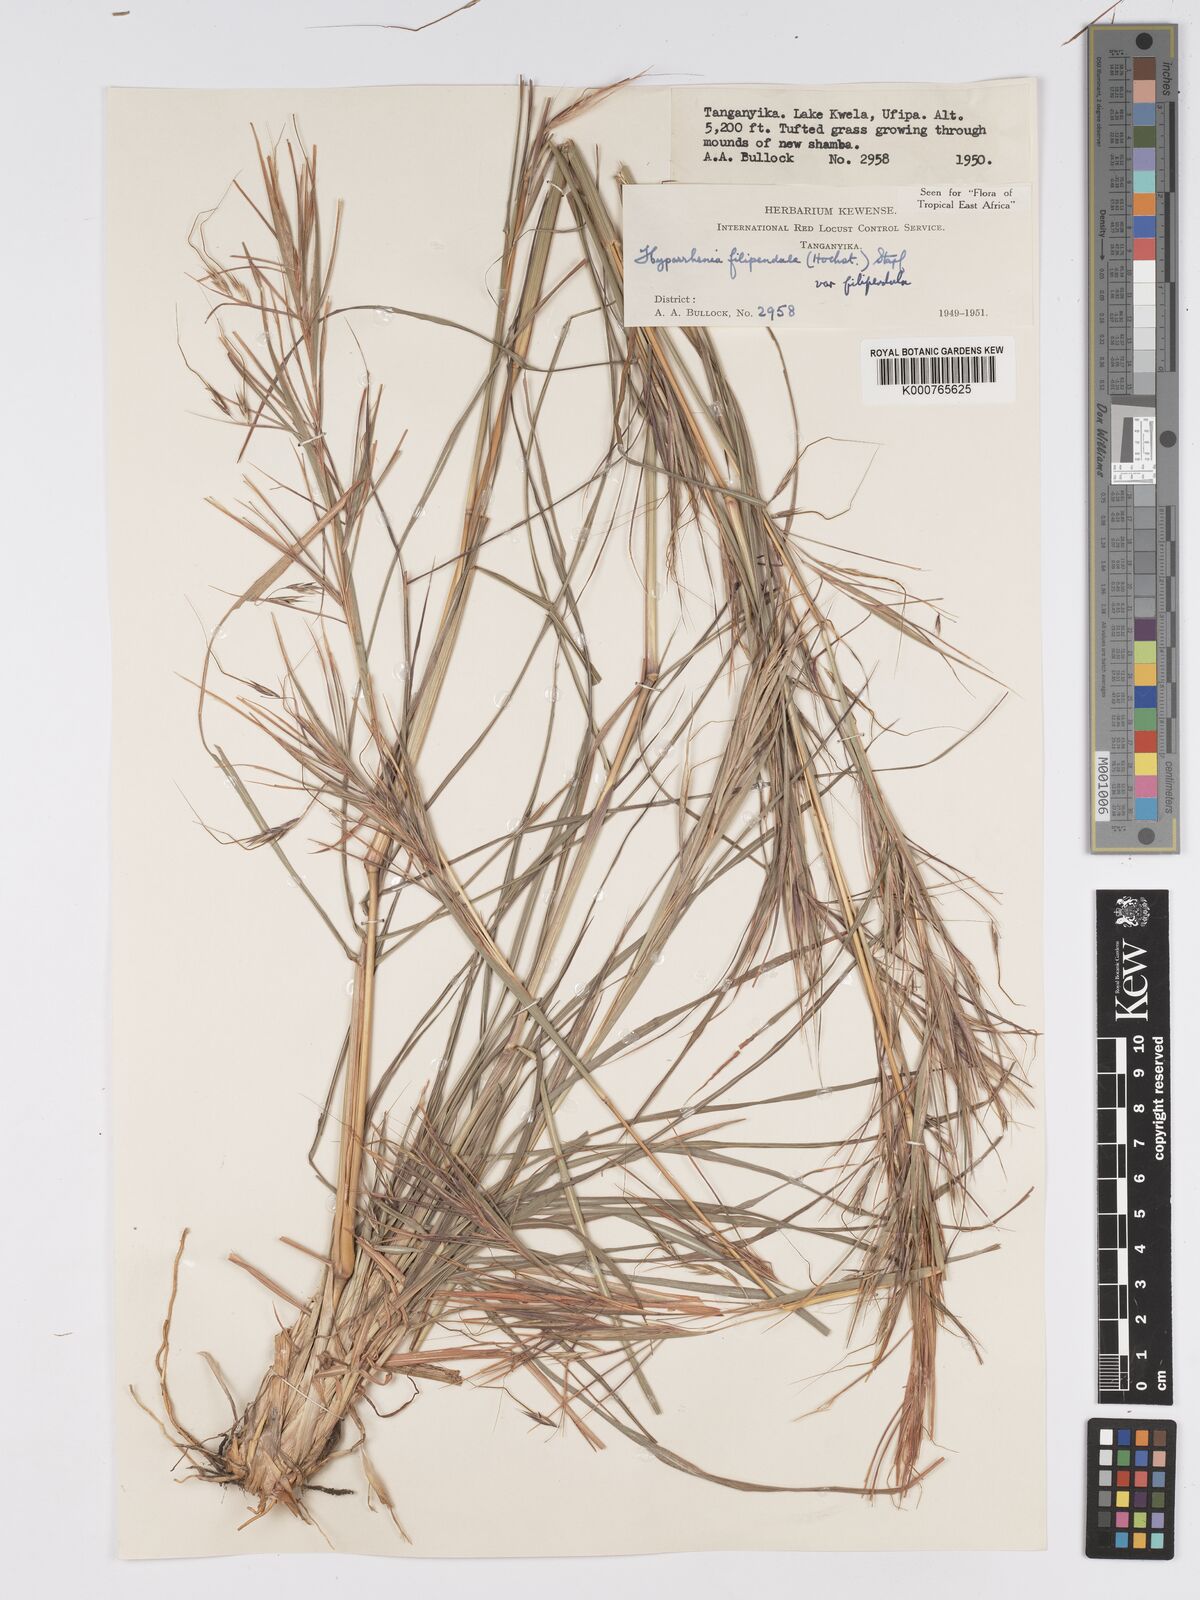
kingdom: Plantae
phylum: Tracheophyta
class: Liliopsida
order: Poales
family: Poaceae
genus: Hyparrhenia
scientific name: Hyparrhenia filipendula
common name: Tambookie grass
